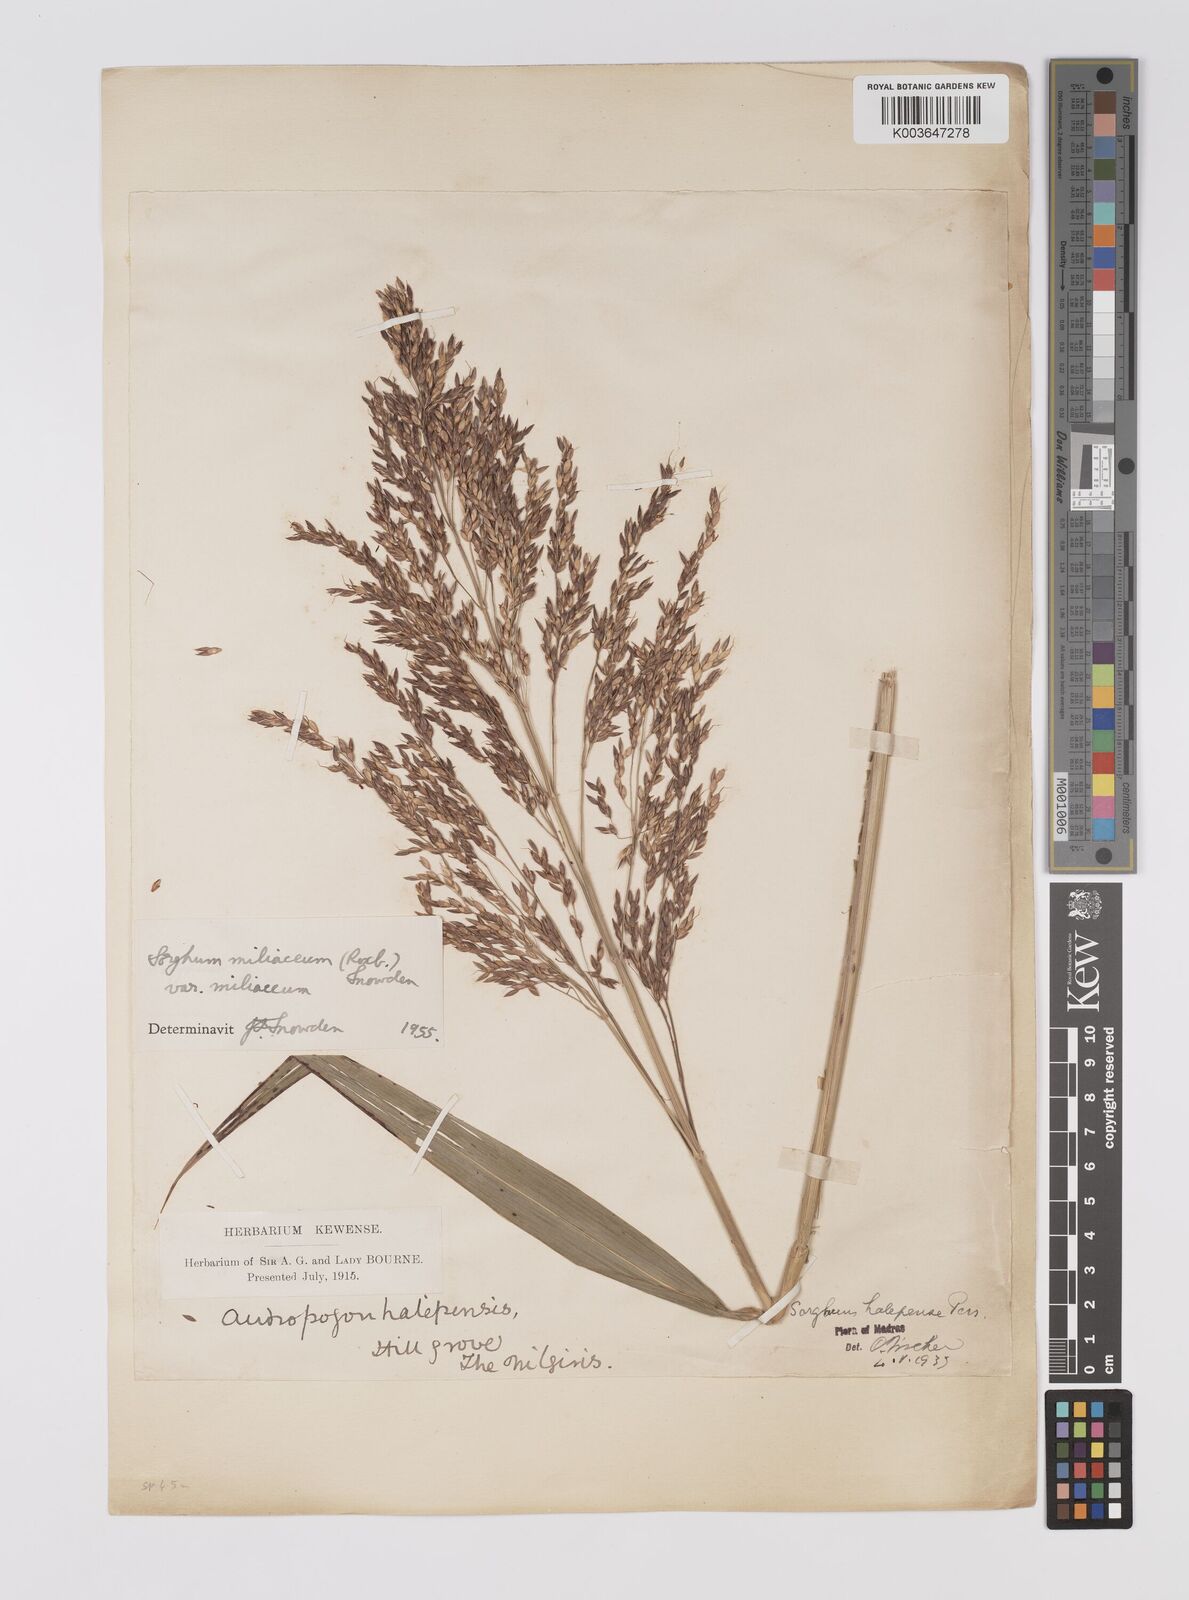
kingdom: Plantae
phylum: Tracheophyta
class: Liliopsida
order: Poales
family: Poaceae
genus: Sorghum
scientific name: Sorghum halepense
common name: Johnson-grass
